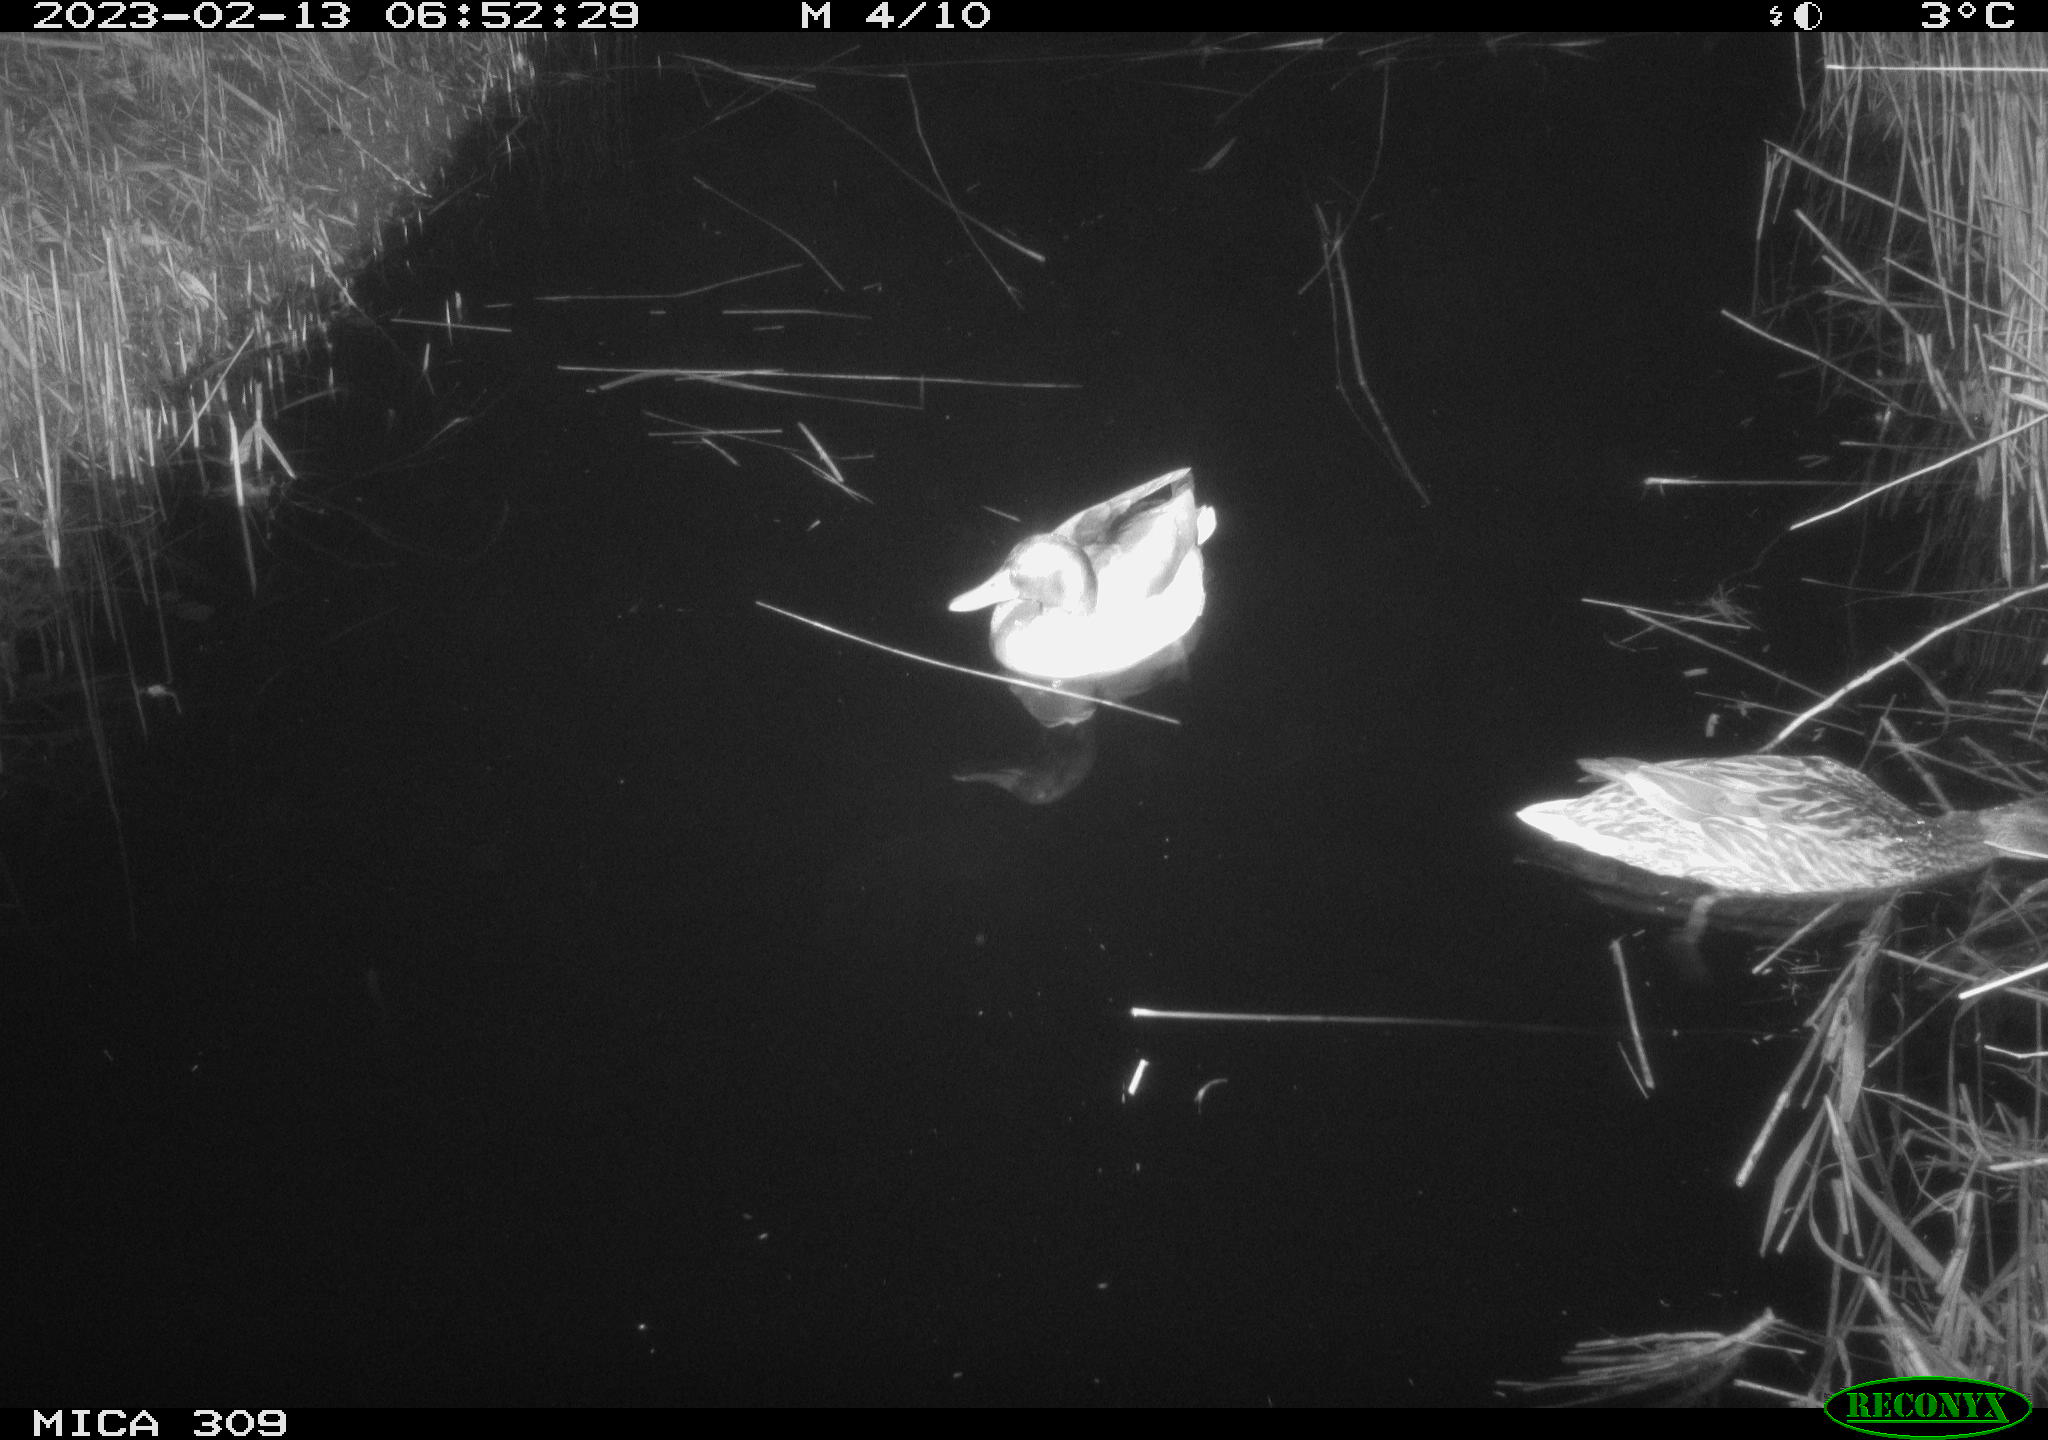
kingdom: Animalia
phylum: Chordata
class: Aves
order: Anseriformes
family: Anatidae
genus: Anas
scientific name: Anas
